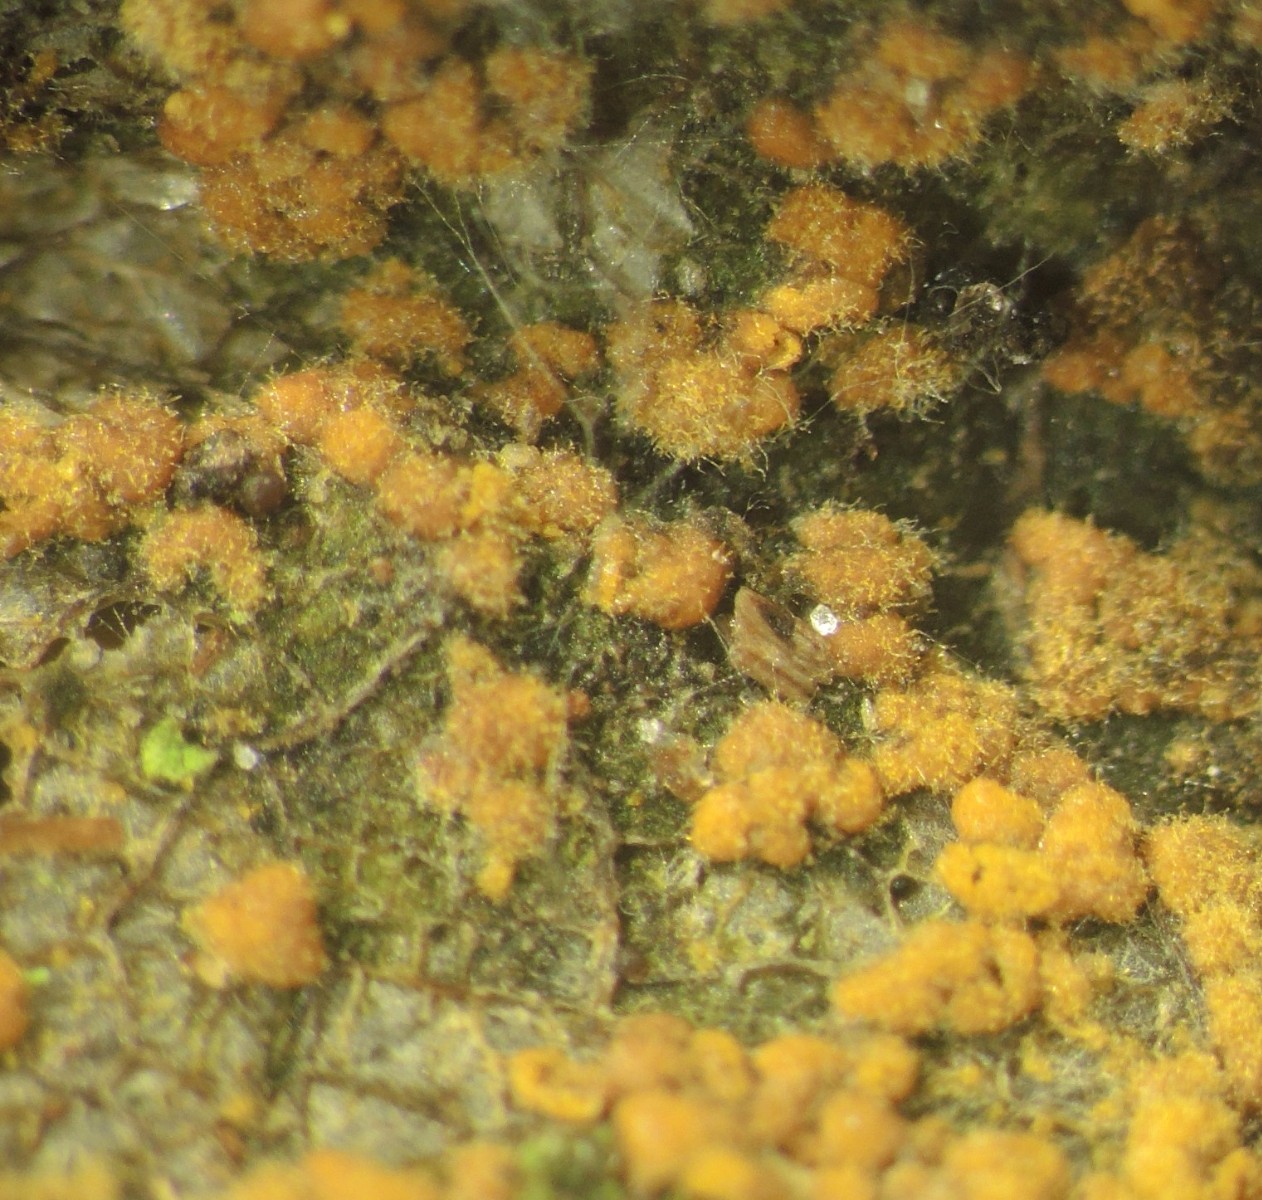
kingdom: Fungi
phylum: Basidiomycota
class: Pucciniomycetes
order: Pucciniales
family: Pucciniastraceae
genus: Melampsoridium
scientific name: Melampsoridium hiratsukanum
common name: Alder rust
